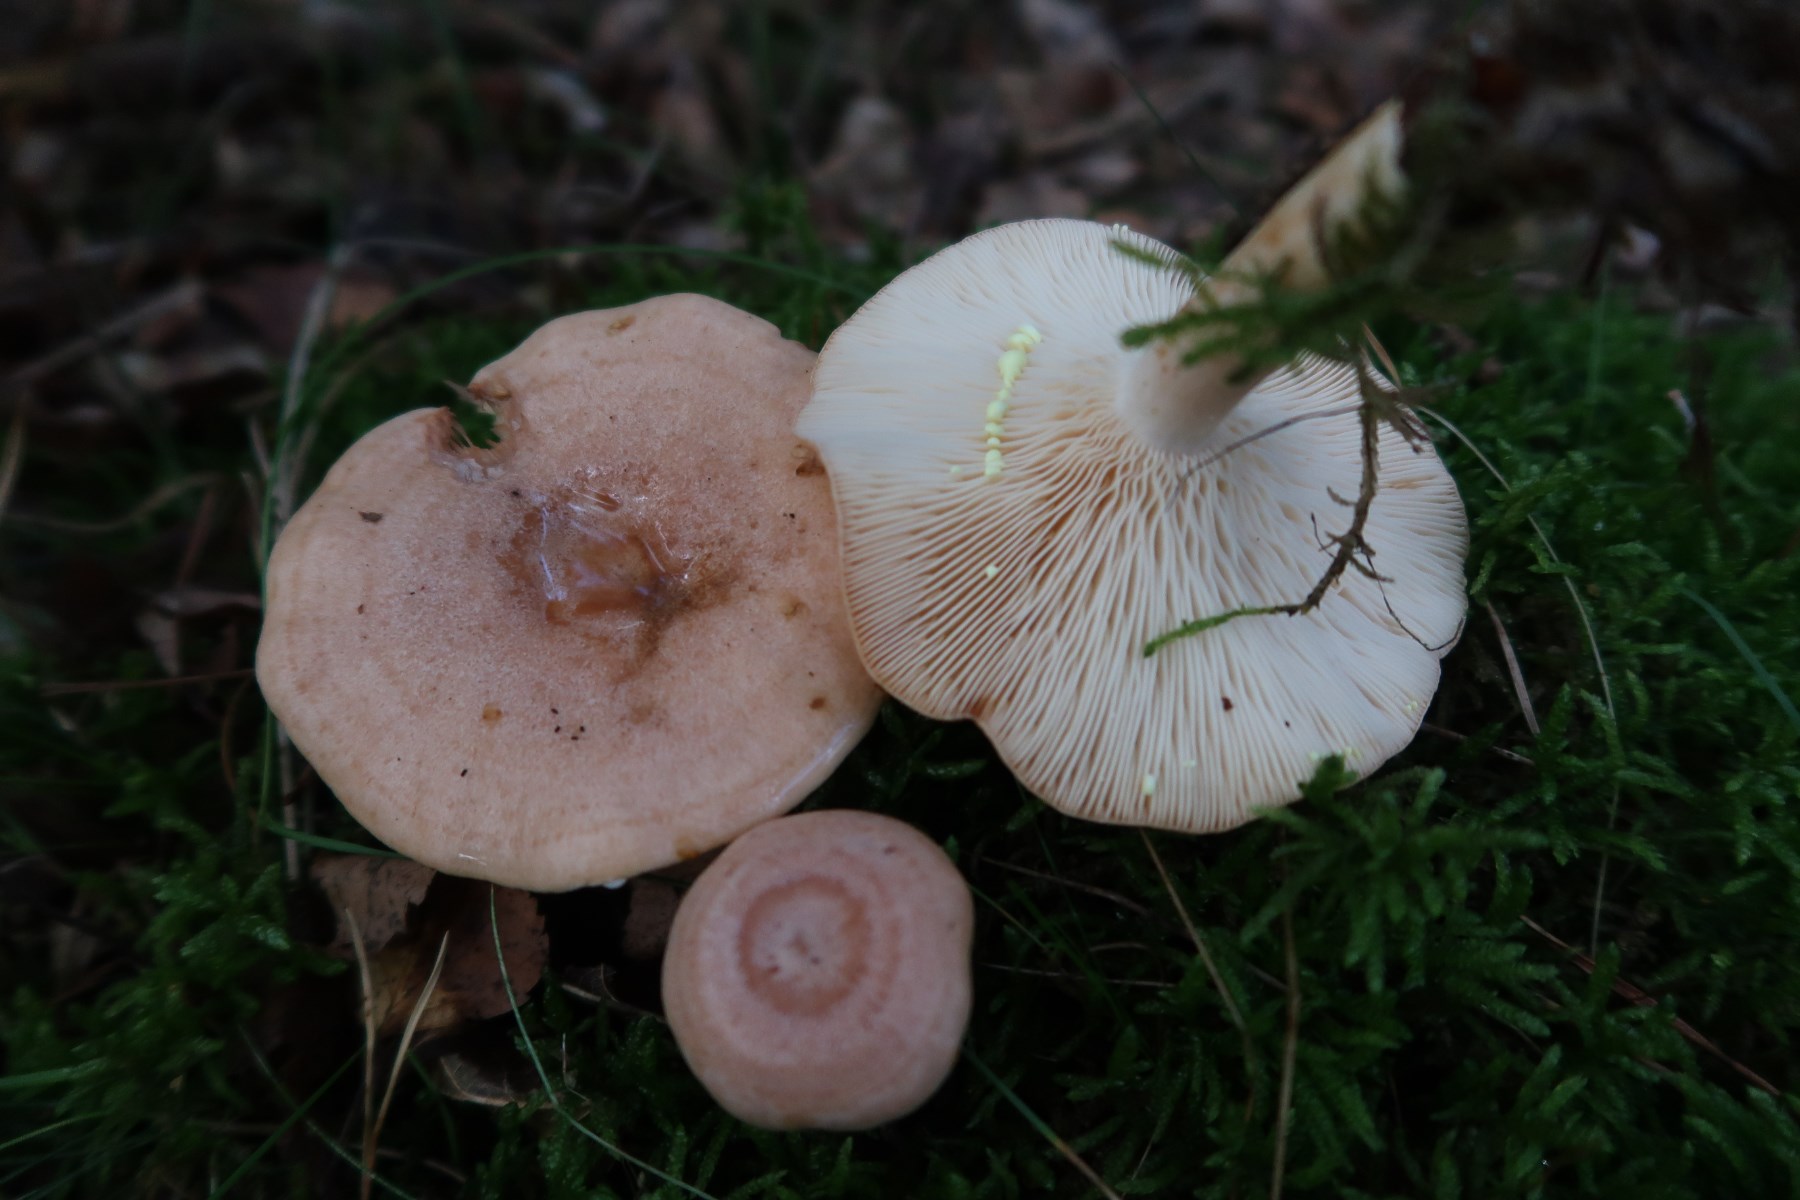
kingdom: Fungi
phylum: Basidiomycota
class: Agaricomycetes
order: Russulales
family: Russulaceae
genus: Lactarius
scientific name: Lactarius chrysorrheus
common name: svovlmælket mælkehat
